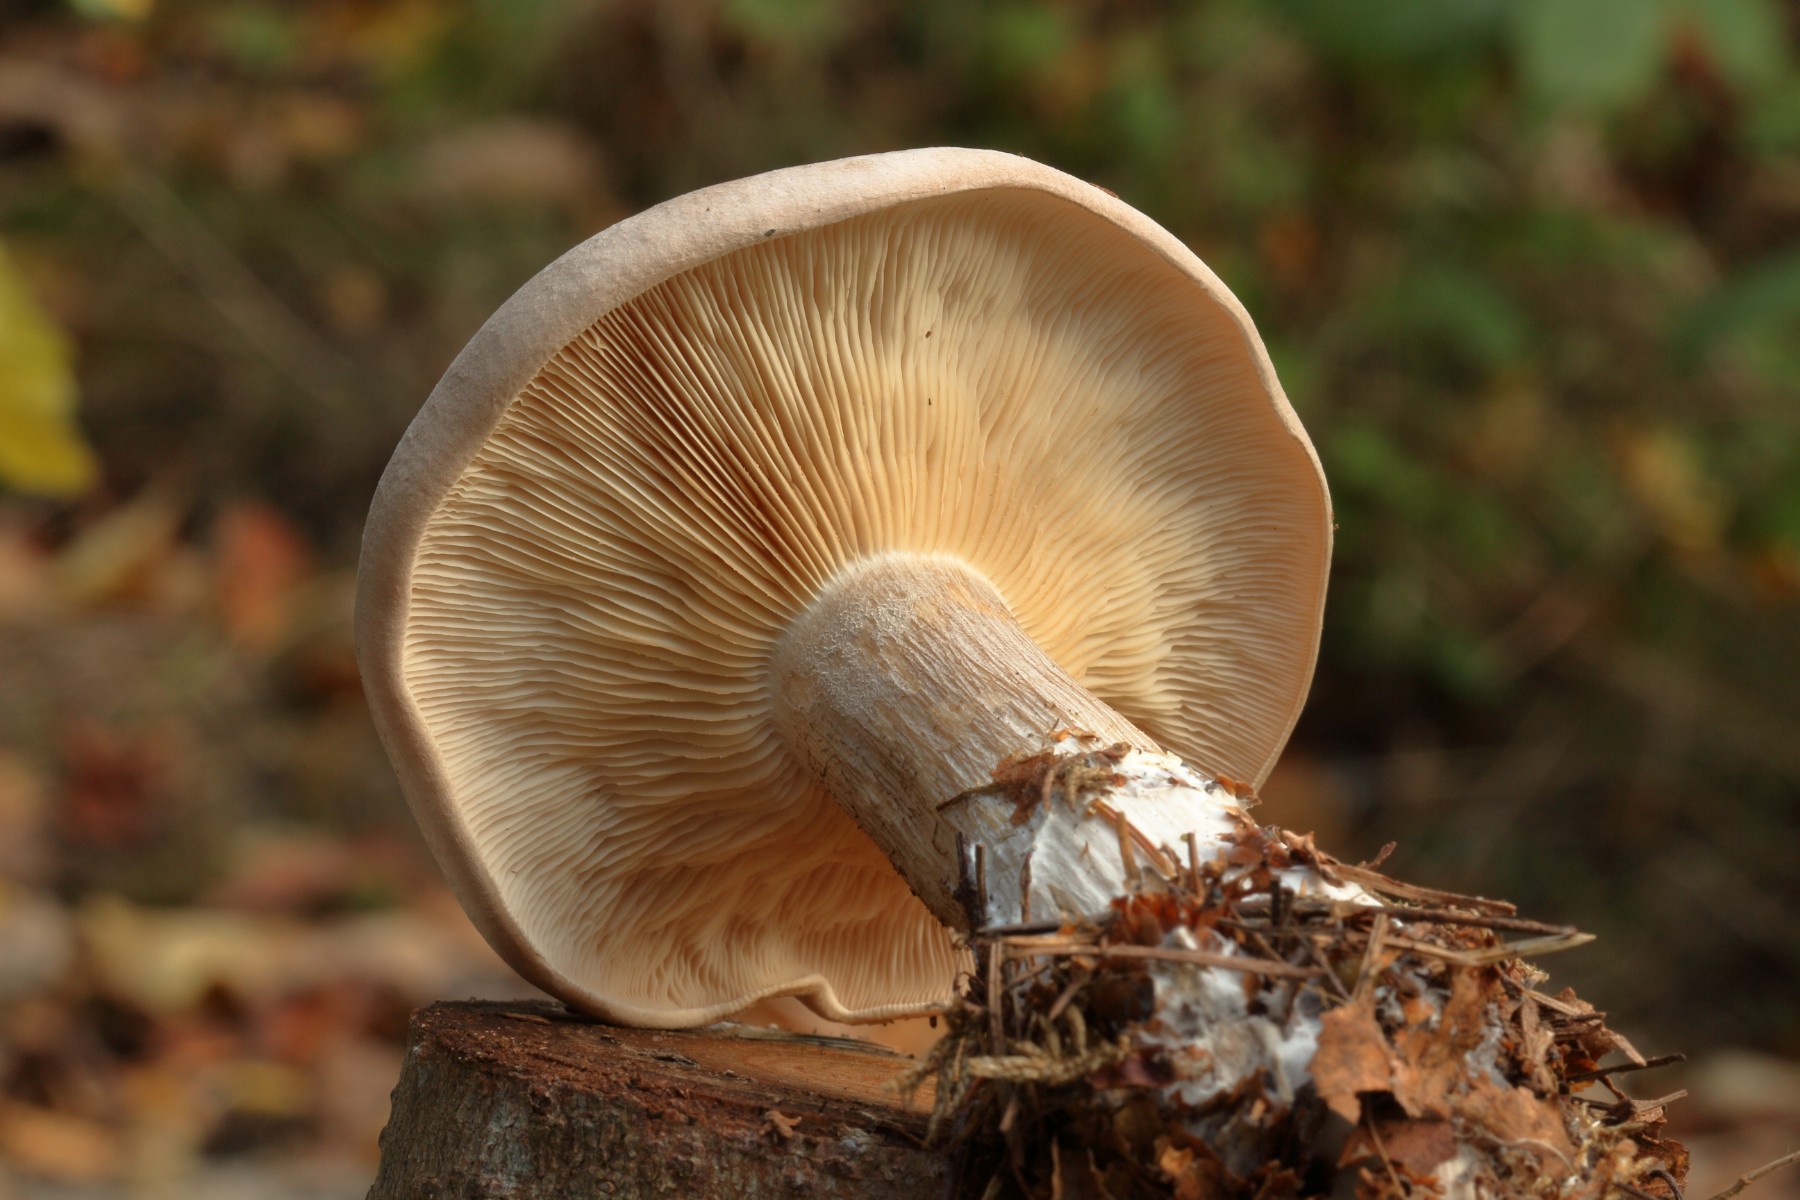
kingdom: Fungi
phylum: Basidiomycota
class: Agaricomycetes
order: Agaricales
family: Tricholomataceae
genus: Clitocybe
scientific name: Clitocybe nebularis
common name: tåge-tragthat
